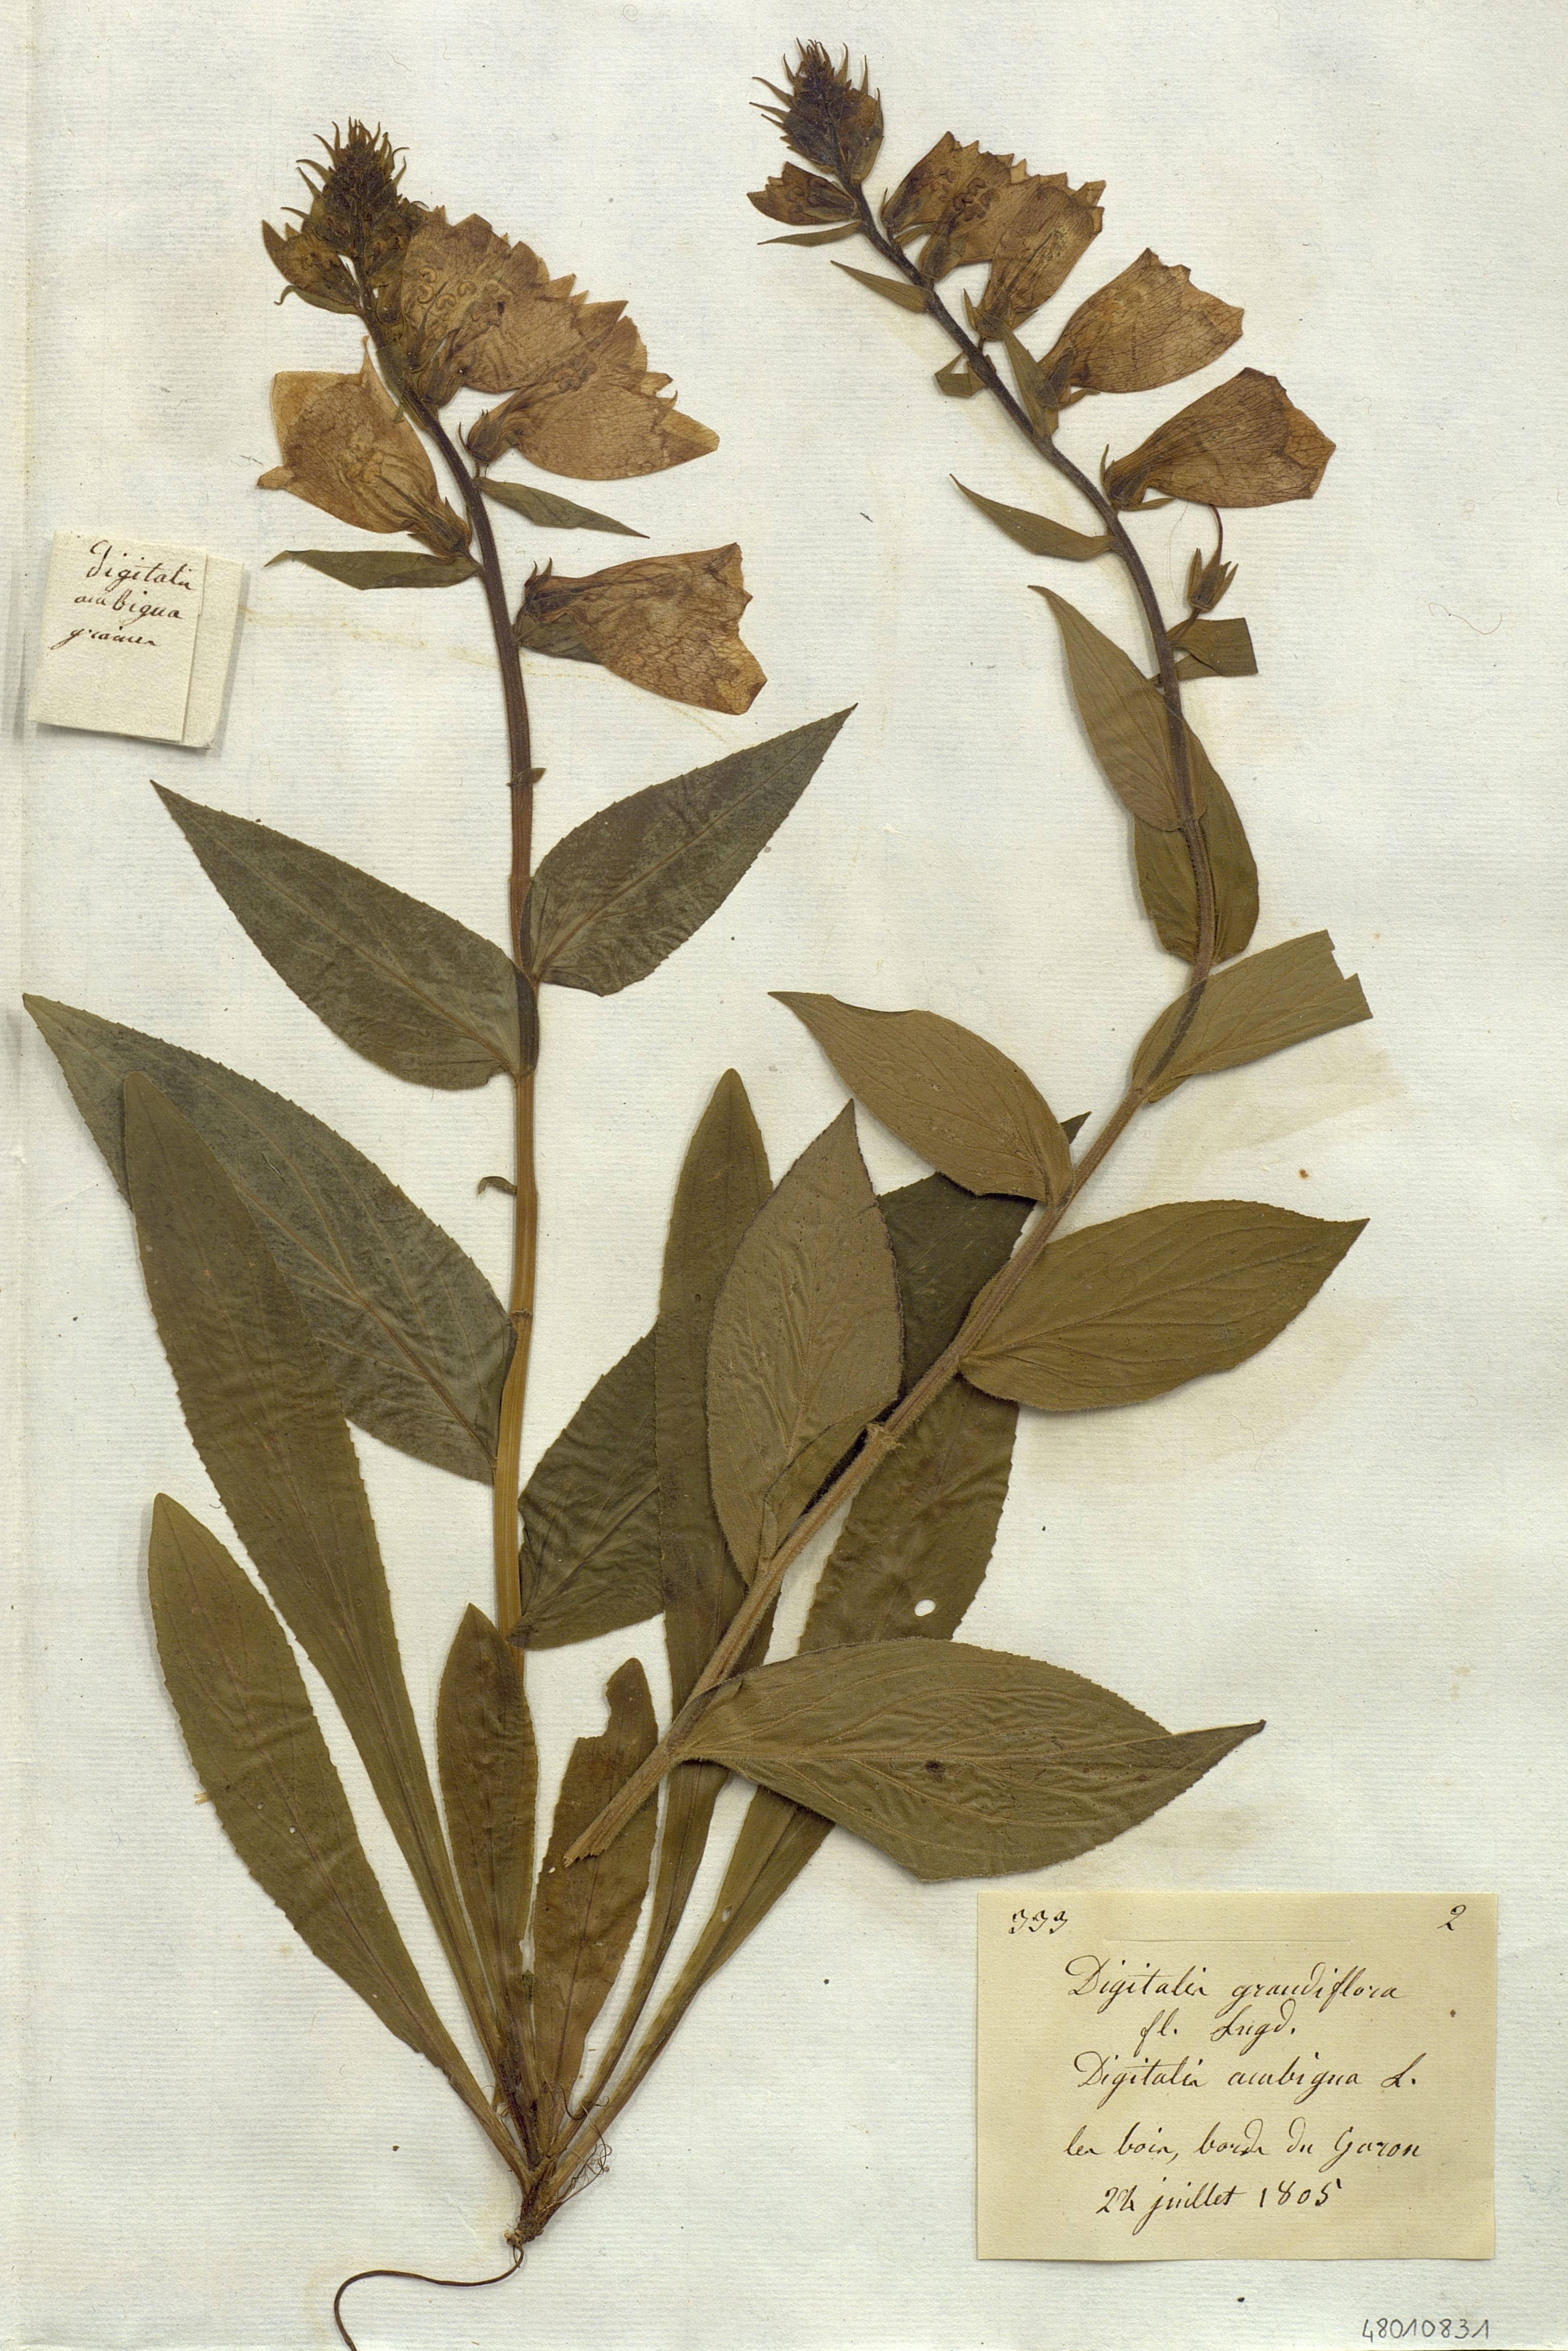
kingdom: Plantae
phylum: Tracheophyta
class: Magnoliopsida
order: Lamiales
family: Plantaginaceae
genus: Digitalis
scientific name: Digitalis grandiflora
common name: Yellow foxglove
